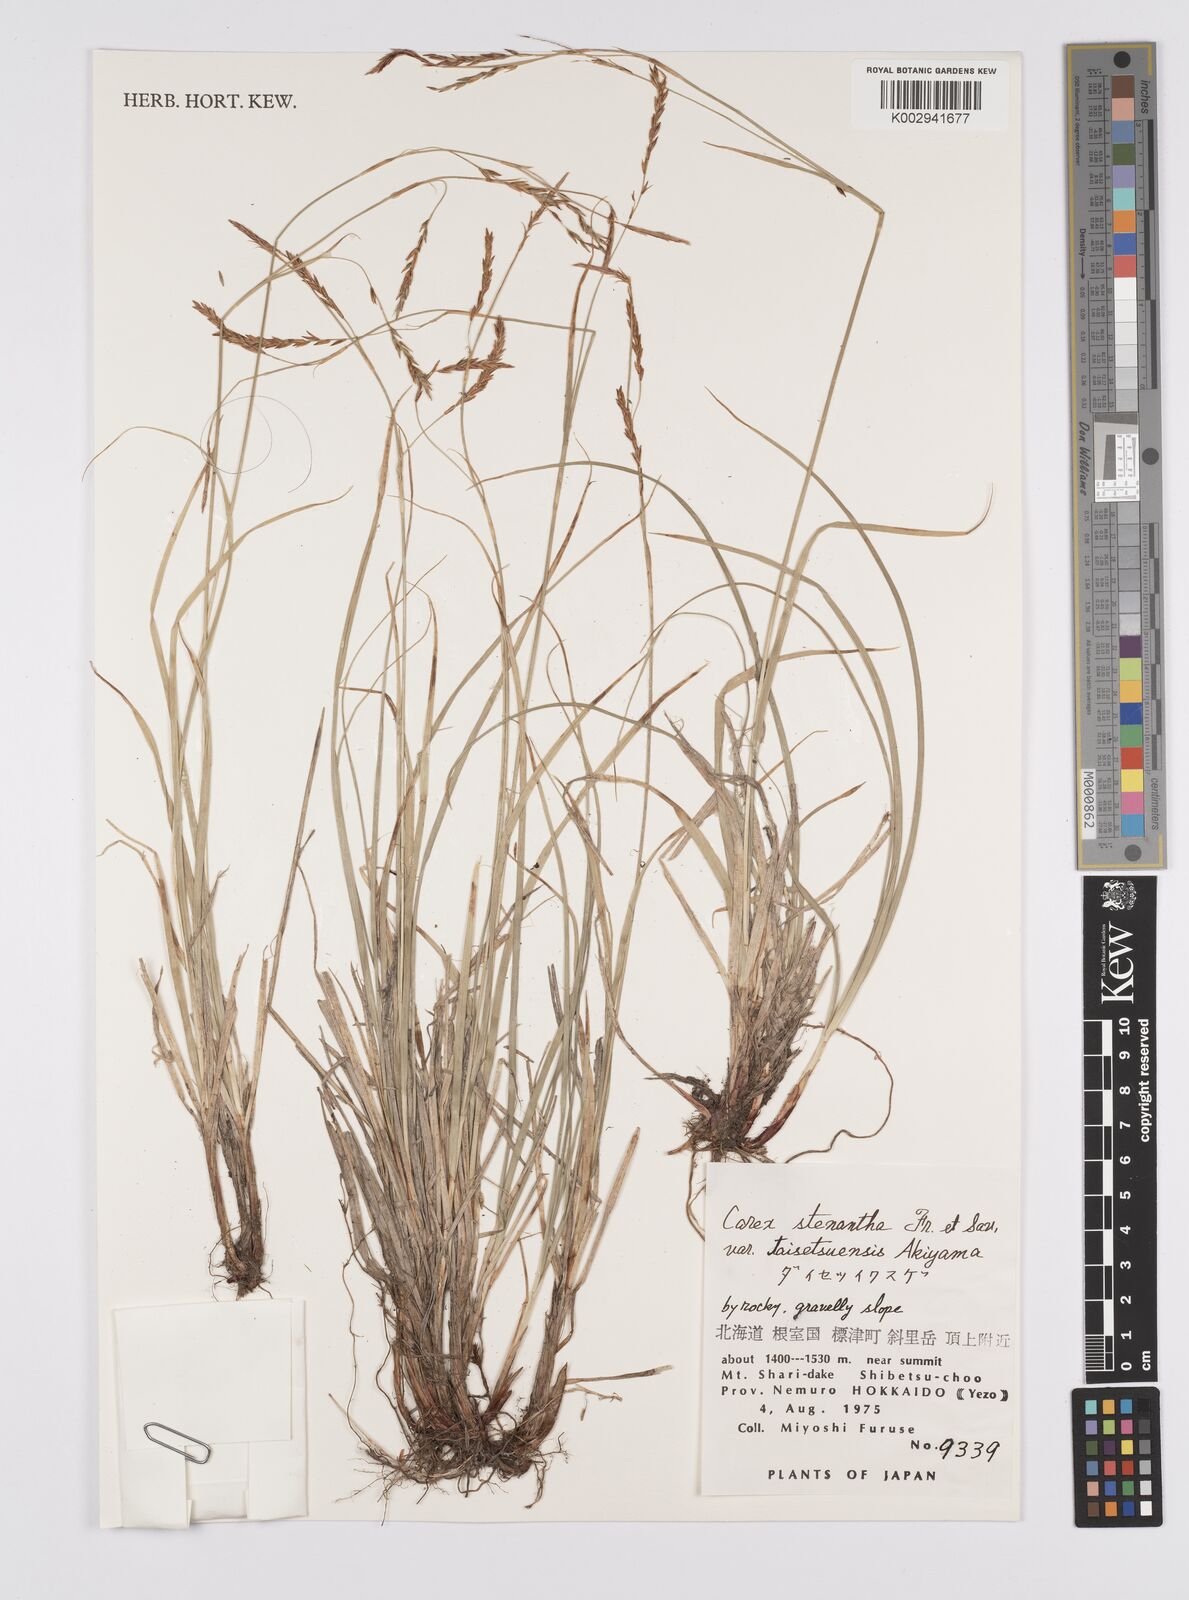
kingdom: Plantae
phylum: Tracheophyta
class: Liliopsida
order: Poales
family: Cyperaceae
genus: Carex
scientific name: Carex stenantha
